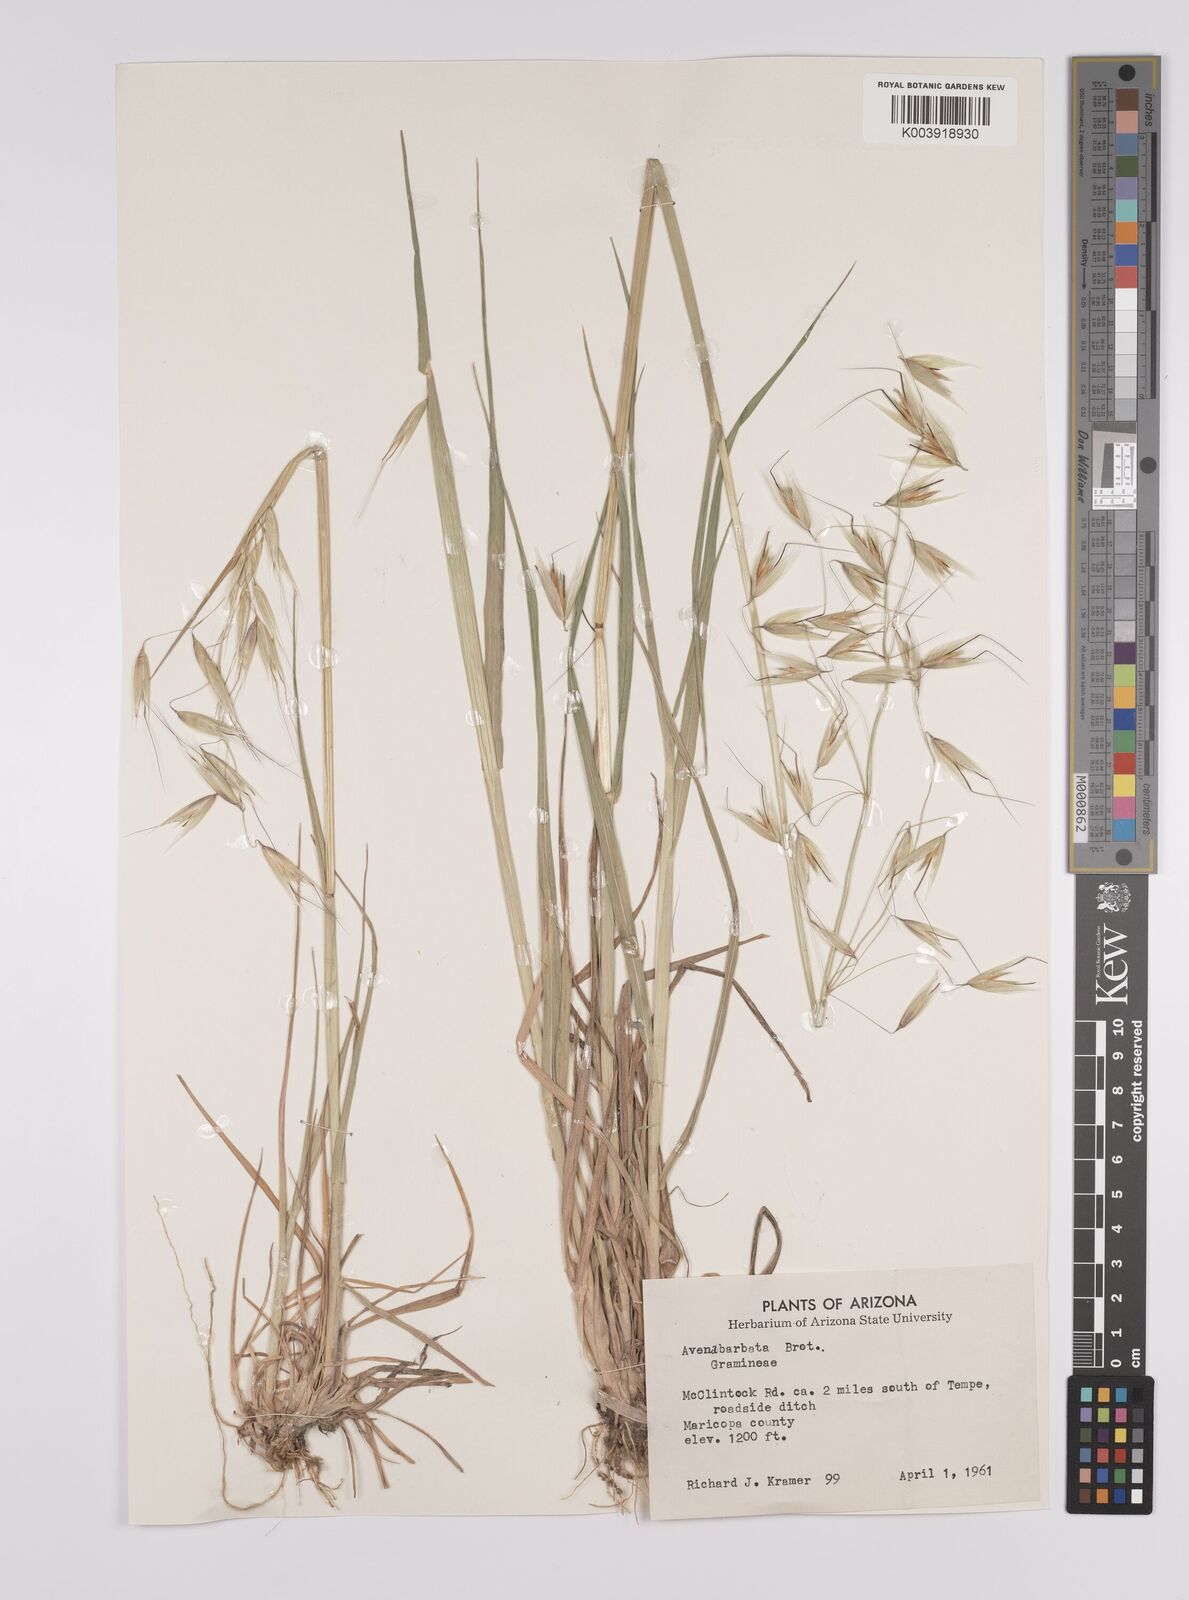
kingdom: Plantae
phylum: Tracheophyta
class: Liliopsida
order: Poales
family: Poaceae
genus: Avena
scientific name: Avena
